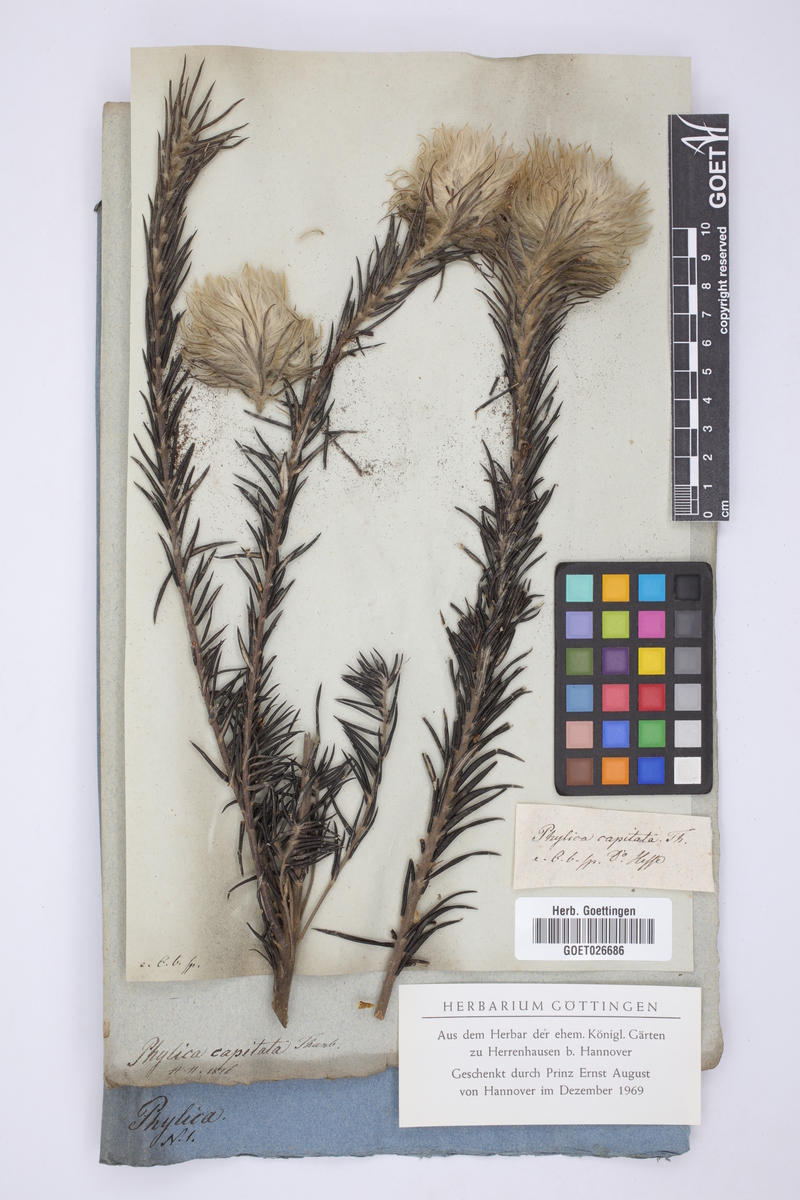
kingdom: Plantae
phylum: Tracheophyta
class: Magnoliopsida
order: Rosales
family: Rhamnaceae
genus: Phylica
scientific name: Phylica pubescens
